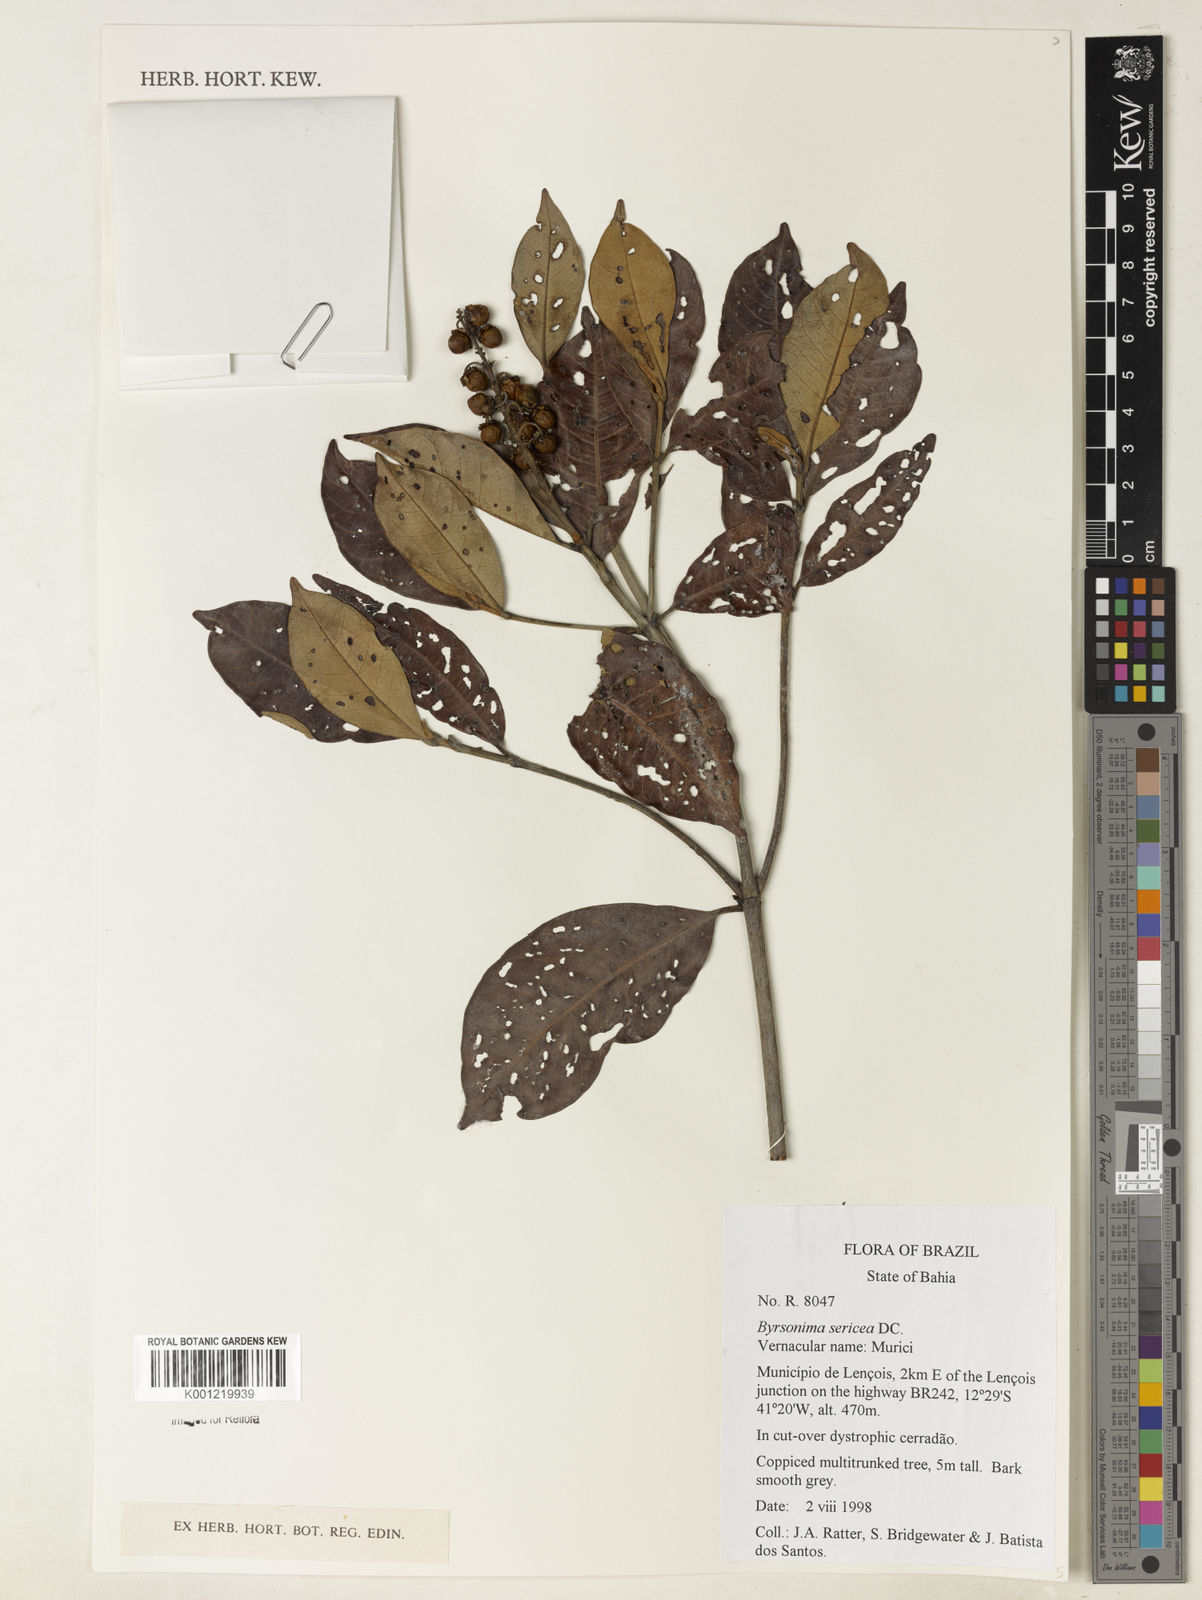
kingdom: Plantae
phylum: Tracheophyta
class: Magnoliopsida
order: Malpighiales
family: Malpighiaceae
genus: Byrsonima
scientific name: Byrsonima sericea
